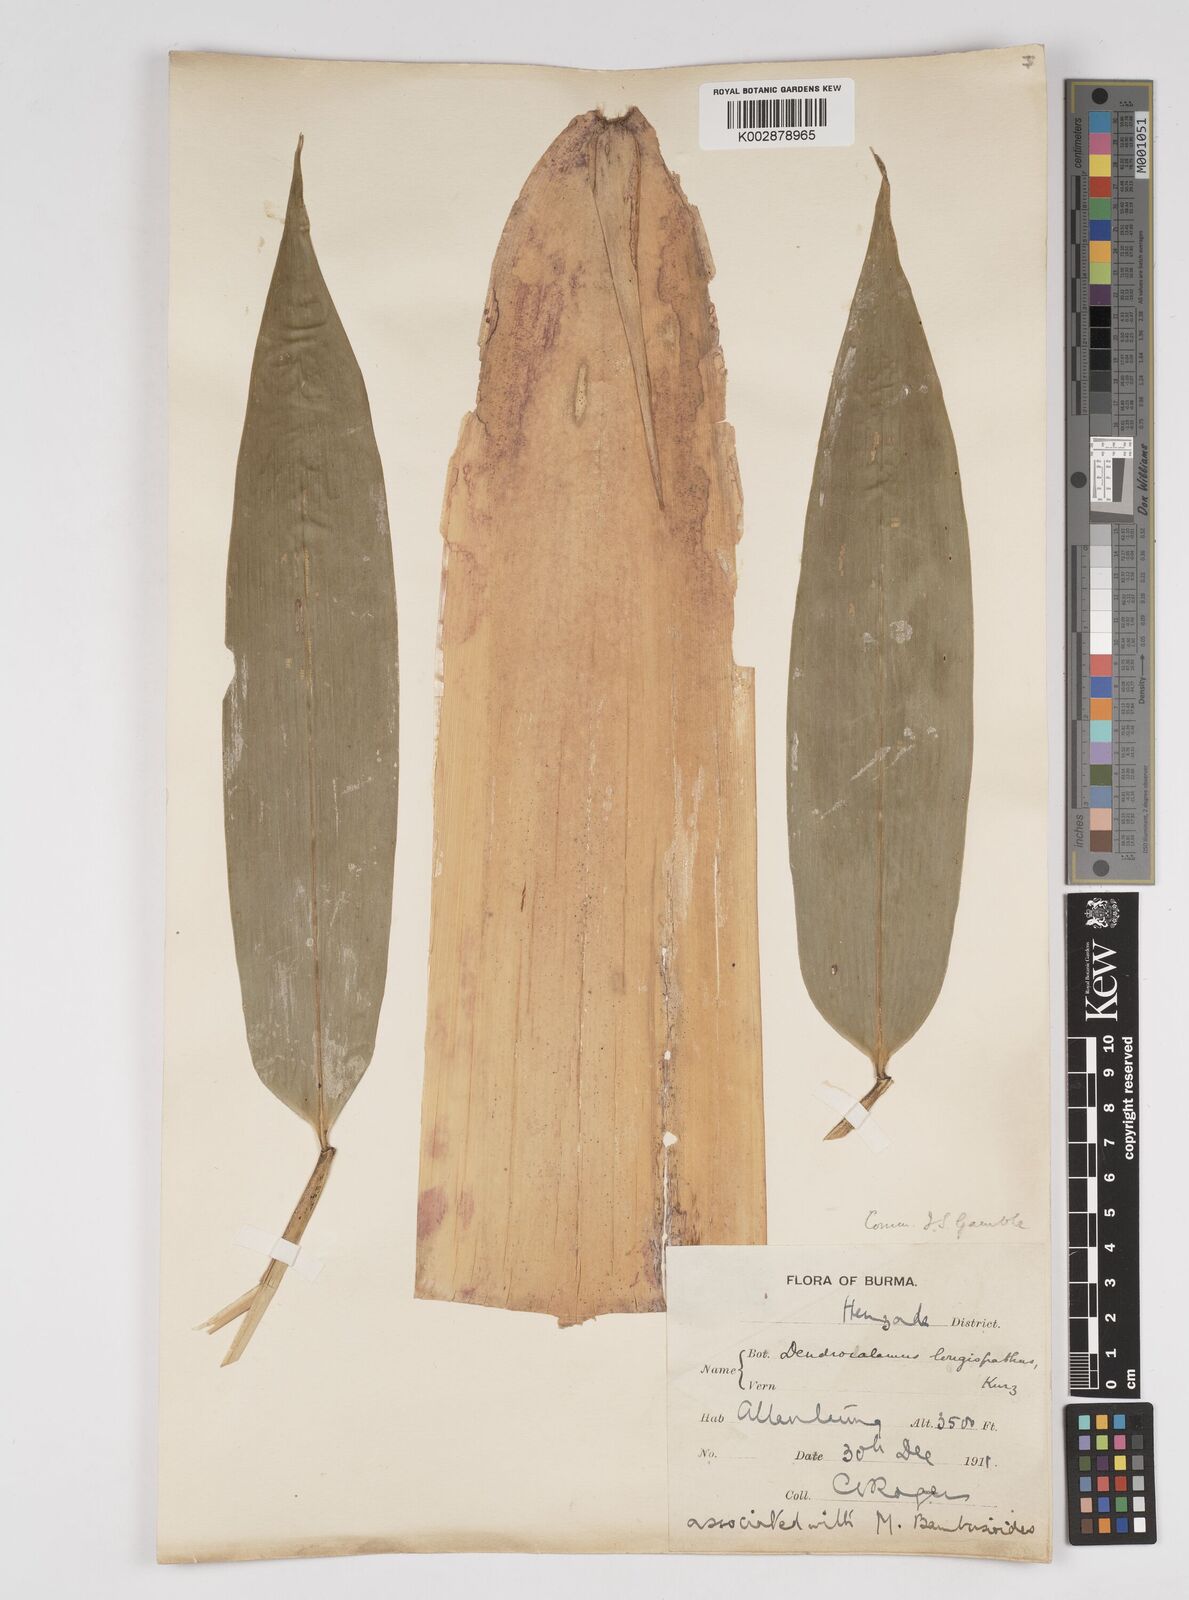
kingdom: Plantae
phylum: Tracheophyta
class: Liliopsida
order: Poales
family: Poaceae
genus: Dendrocalamus
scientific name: Dendrocalamus longispathus
